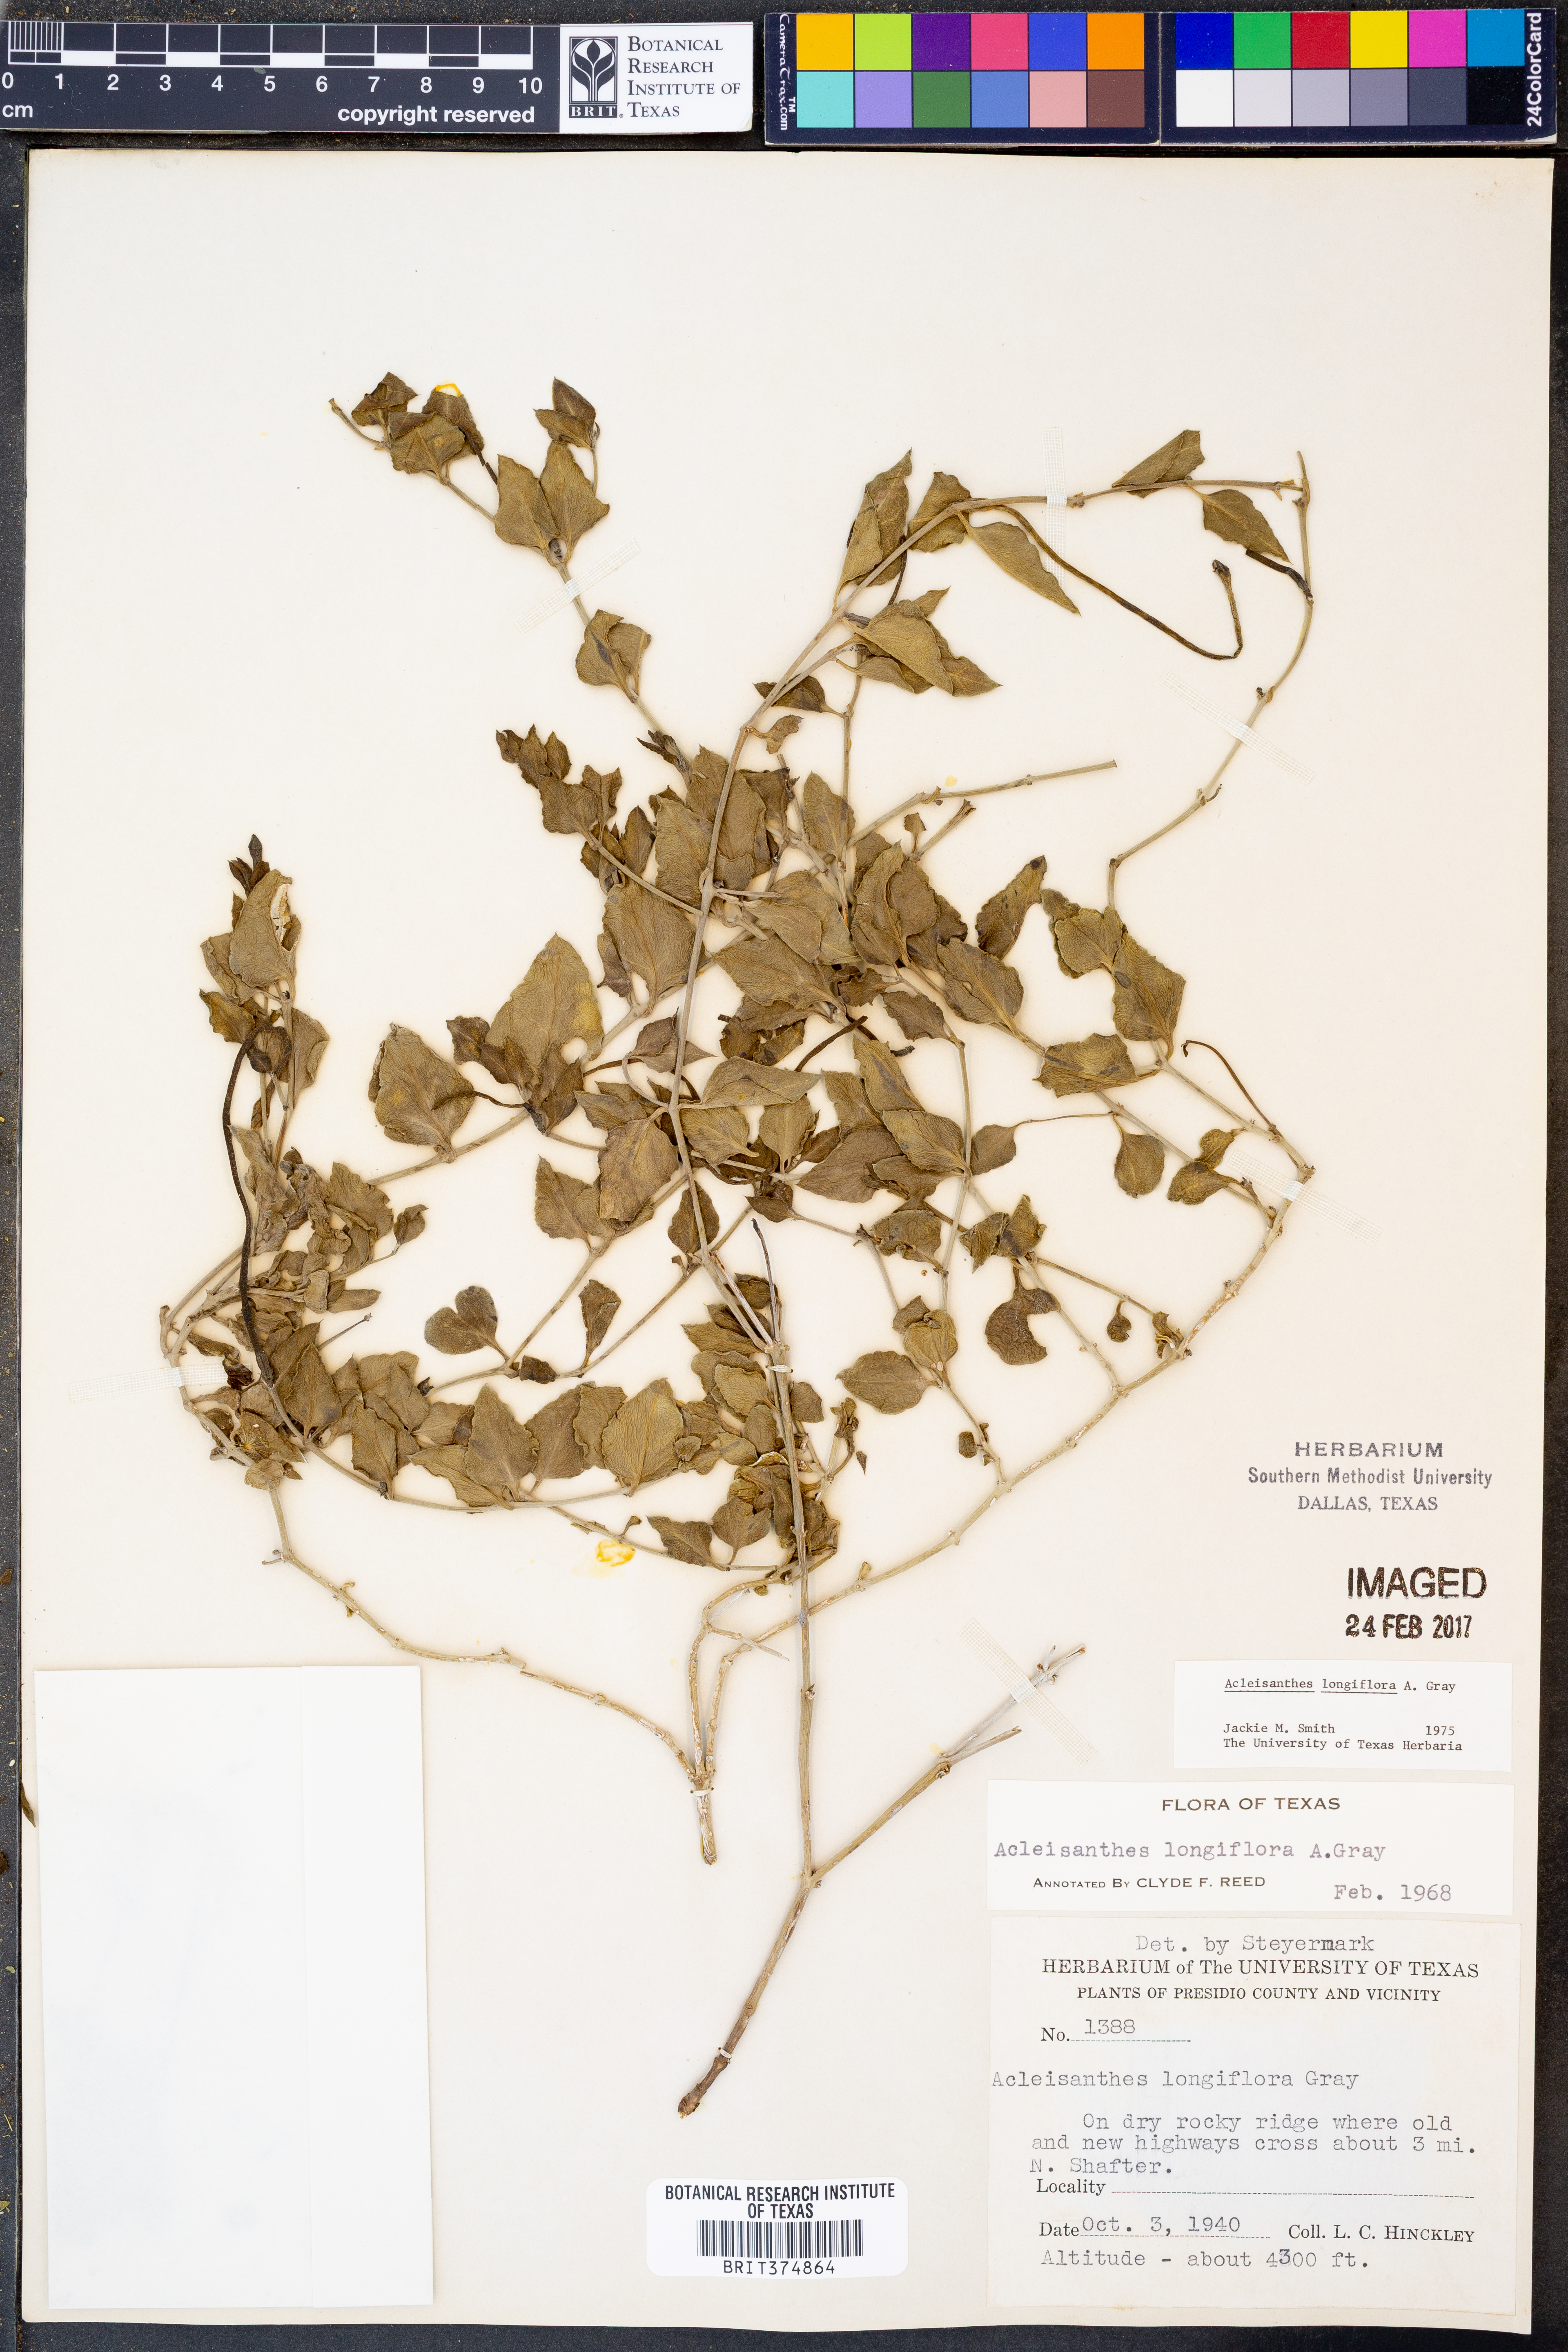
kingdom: Plantae
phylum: Tracheophyta
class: Magnoliopsida
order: Caryophyllales
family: Nyctaginaceae
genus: Acleisanthes
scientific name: Acleisanthes longiflora
